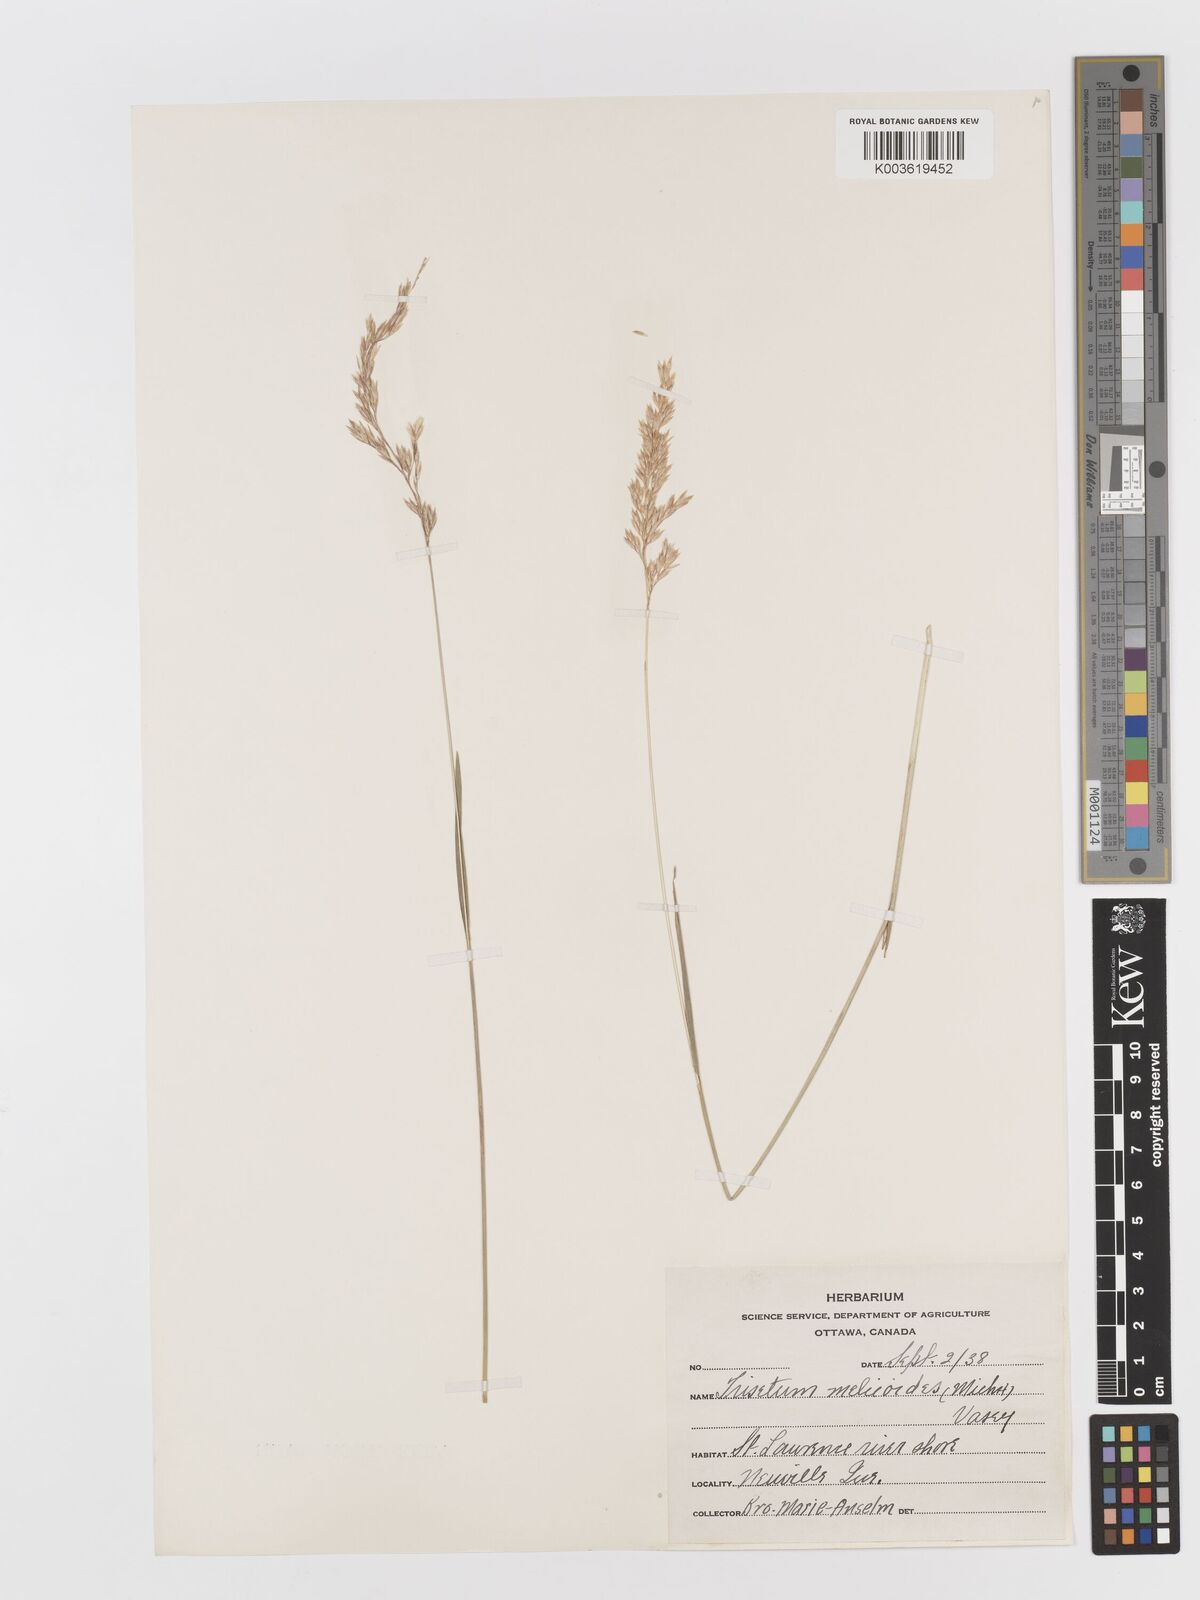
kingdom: Plantae
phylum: Tracheophyta
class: Liliopsida
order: Poales
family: Poaceae
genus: Graphephorum
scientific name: Graphephorum melicoides
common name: False melic
